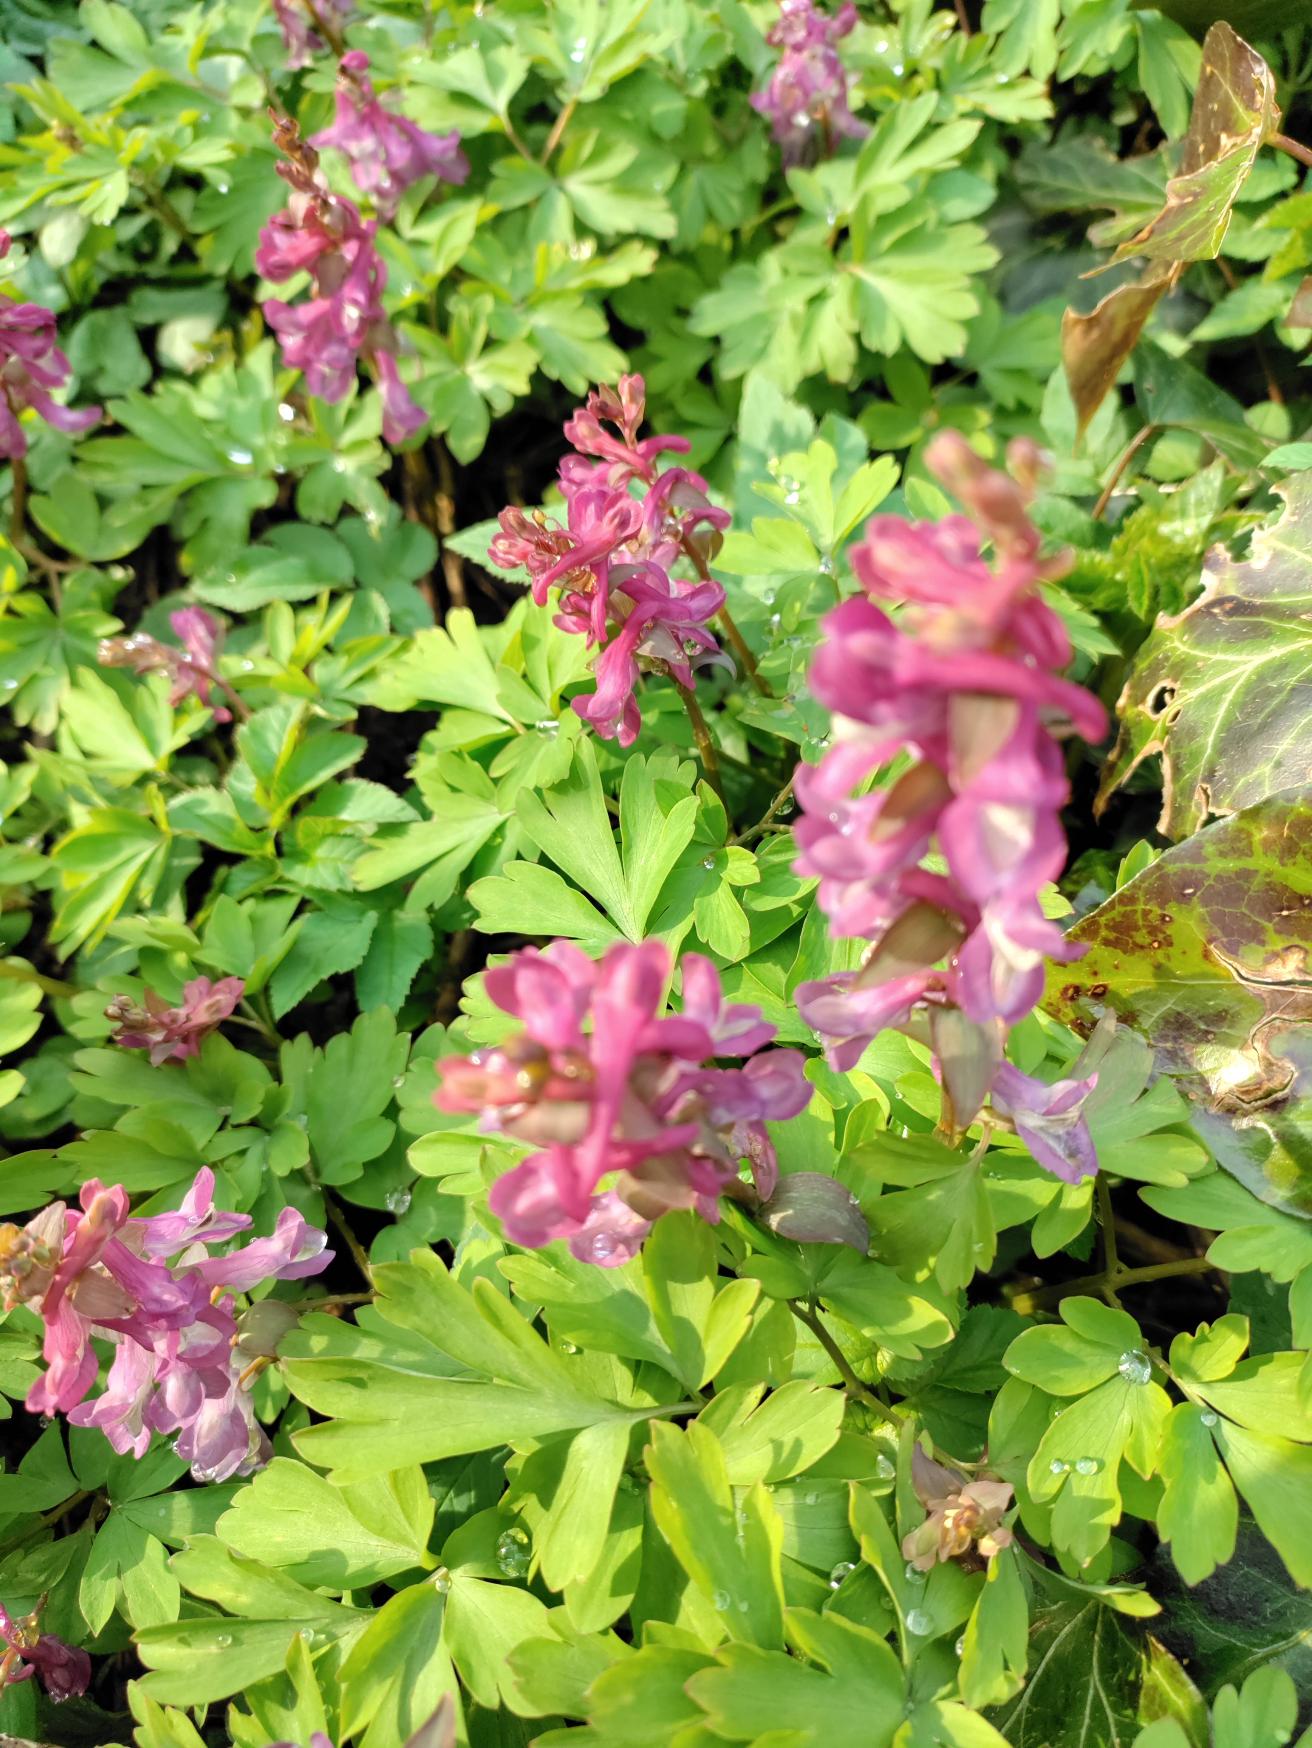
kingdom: Plantae
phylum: Tracheophyta
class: Magnoliopsida
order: Ranunculales
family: Papaveraceae
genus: Corydalis
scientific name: Corydalis cava
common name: Hulrodet lærkespore
